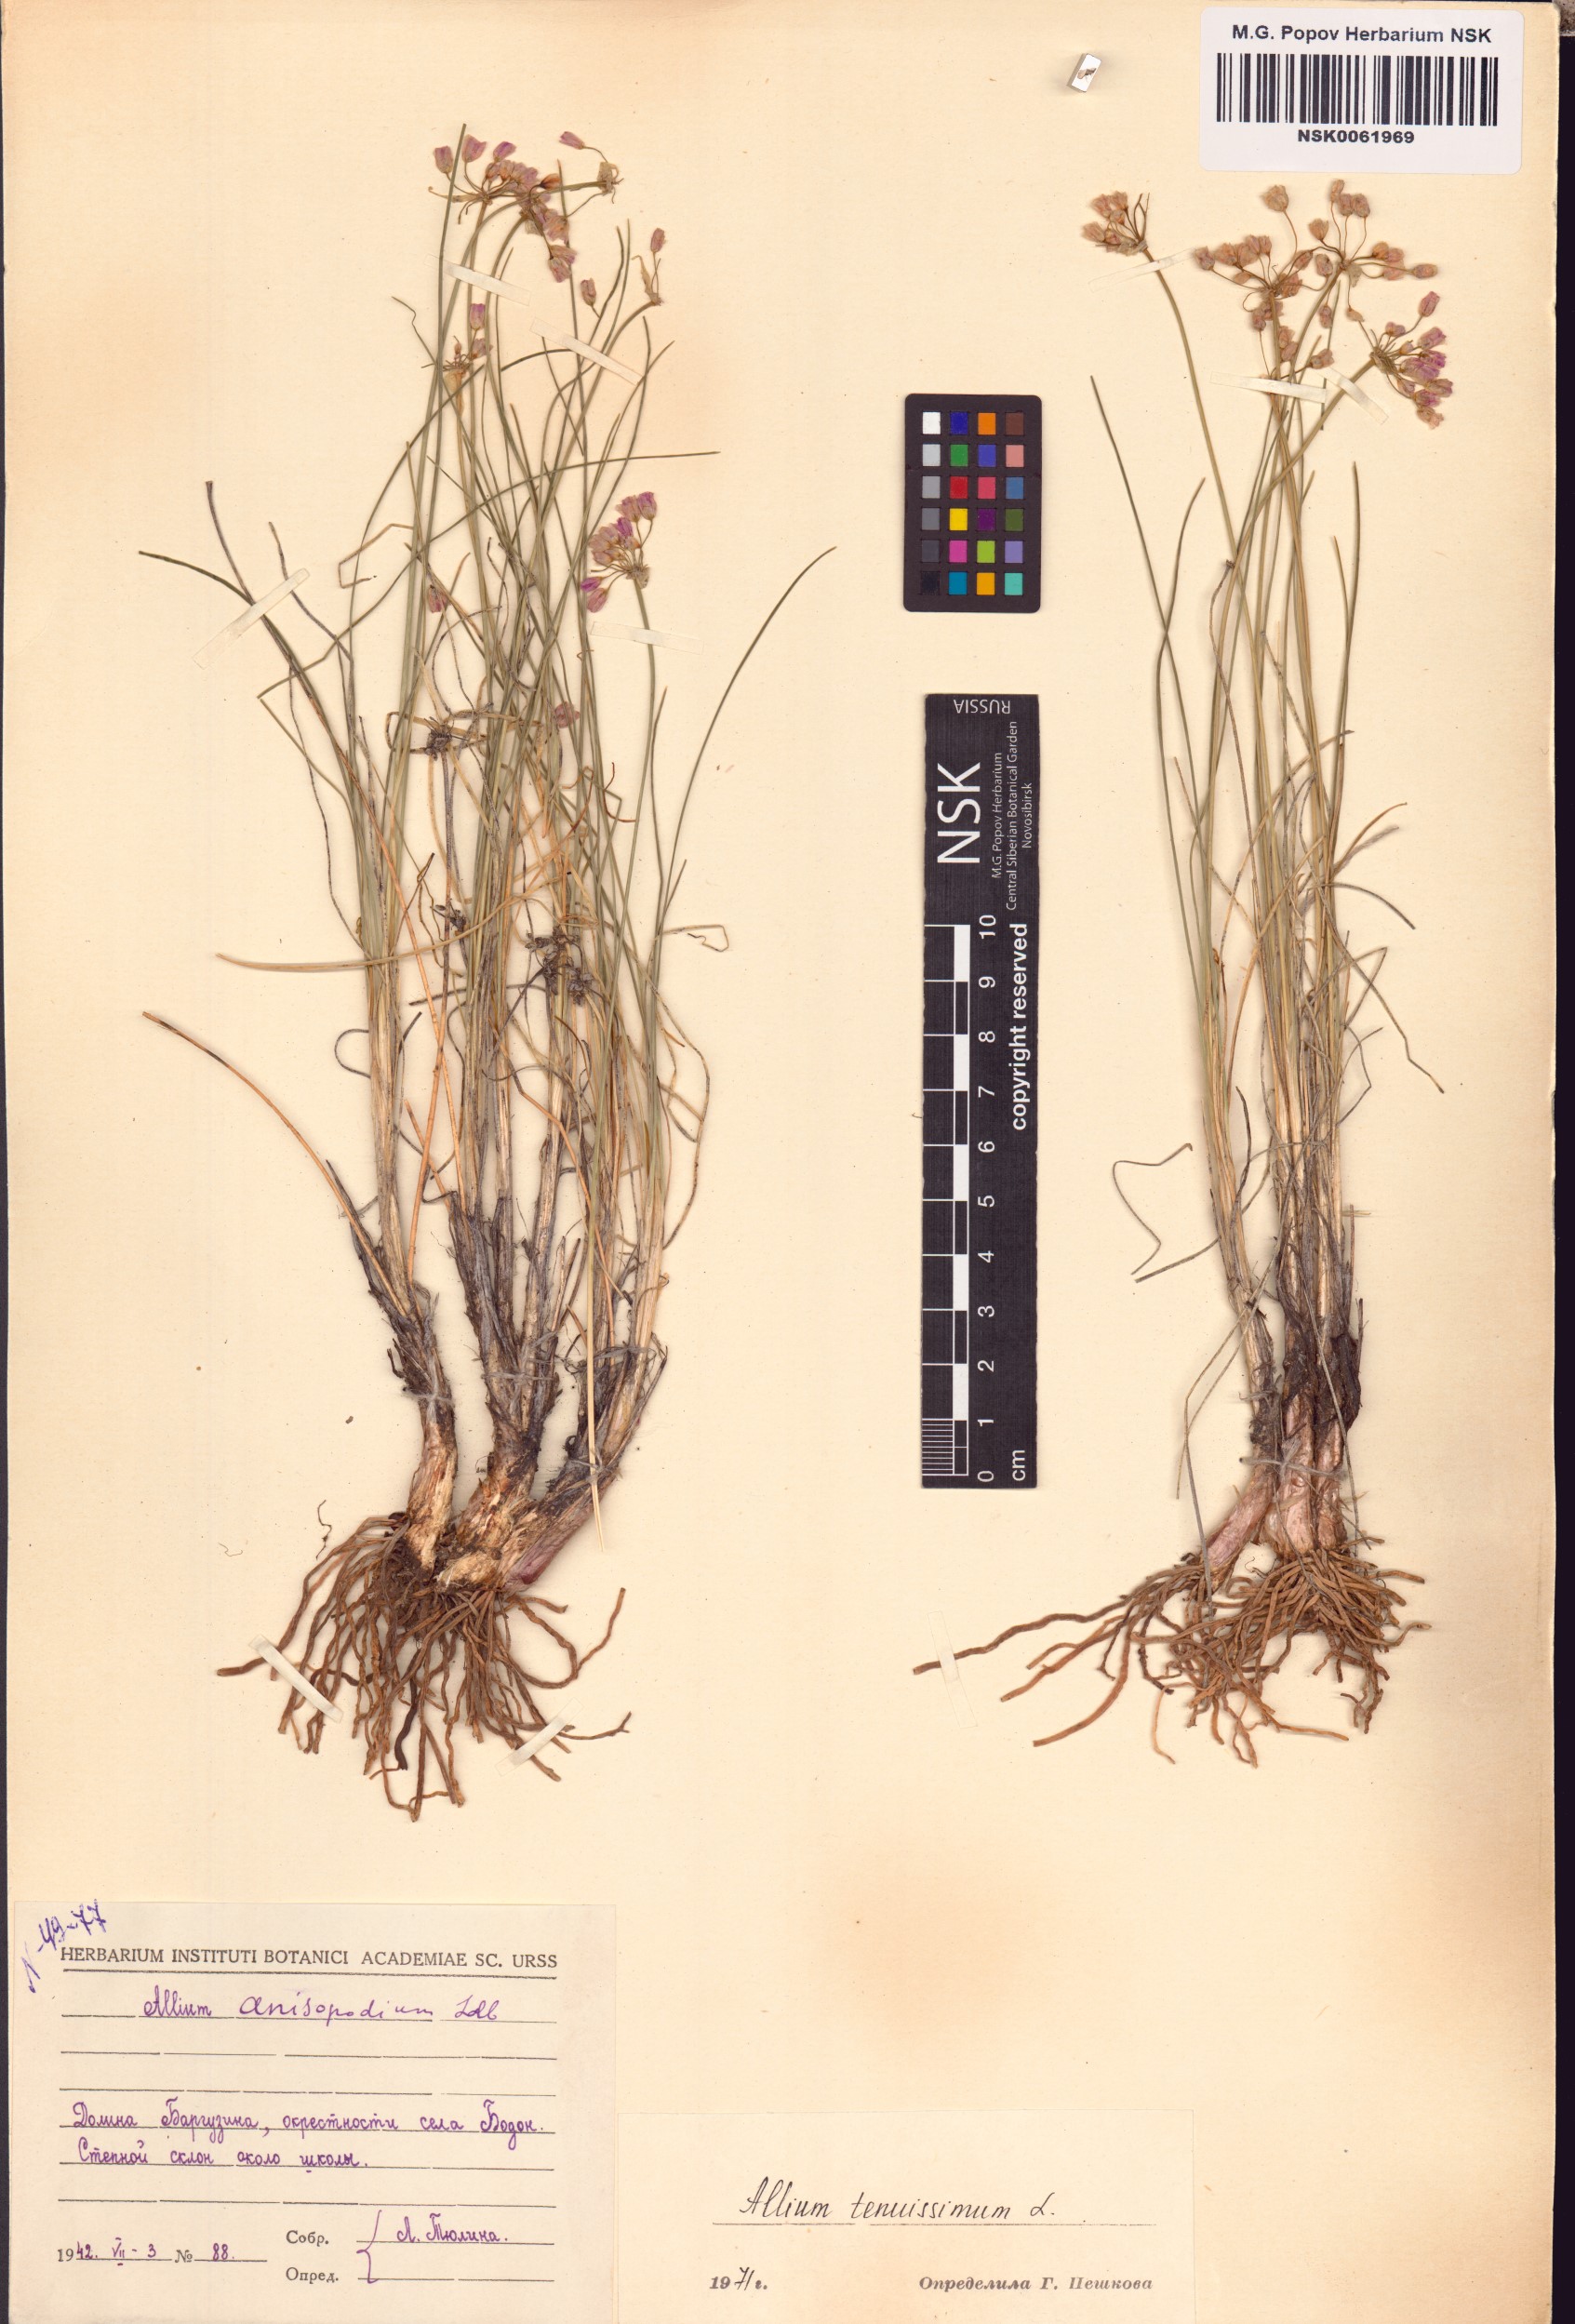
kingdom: Plantae
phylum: Tracheophyta
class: Liliopsida
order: Asparagales
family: Amaryllidaceae
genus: Allium
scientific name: Allium tenuissimum
